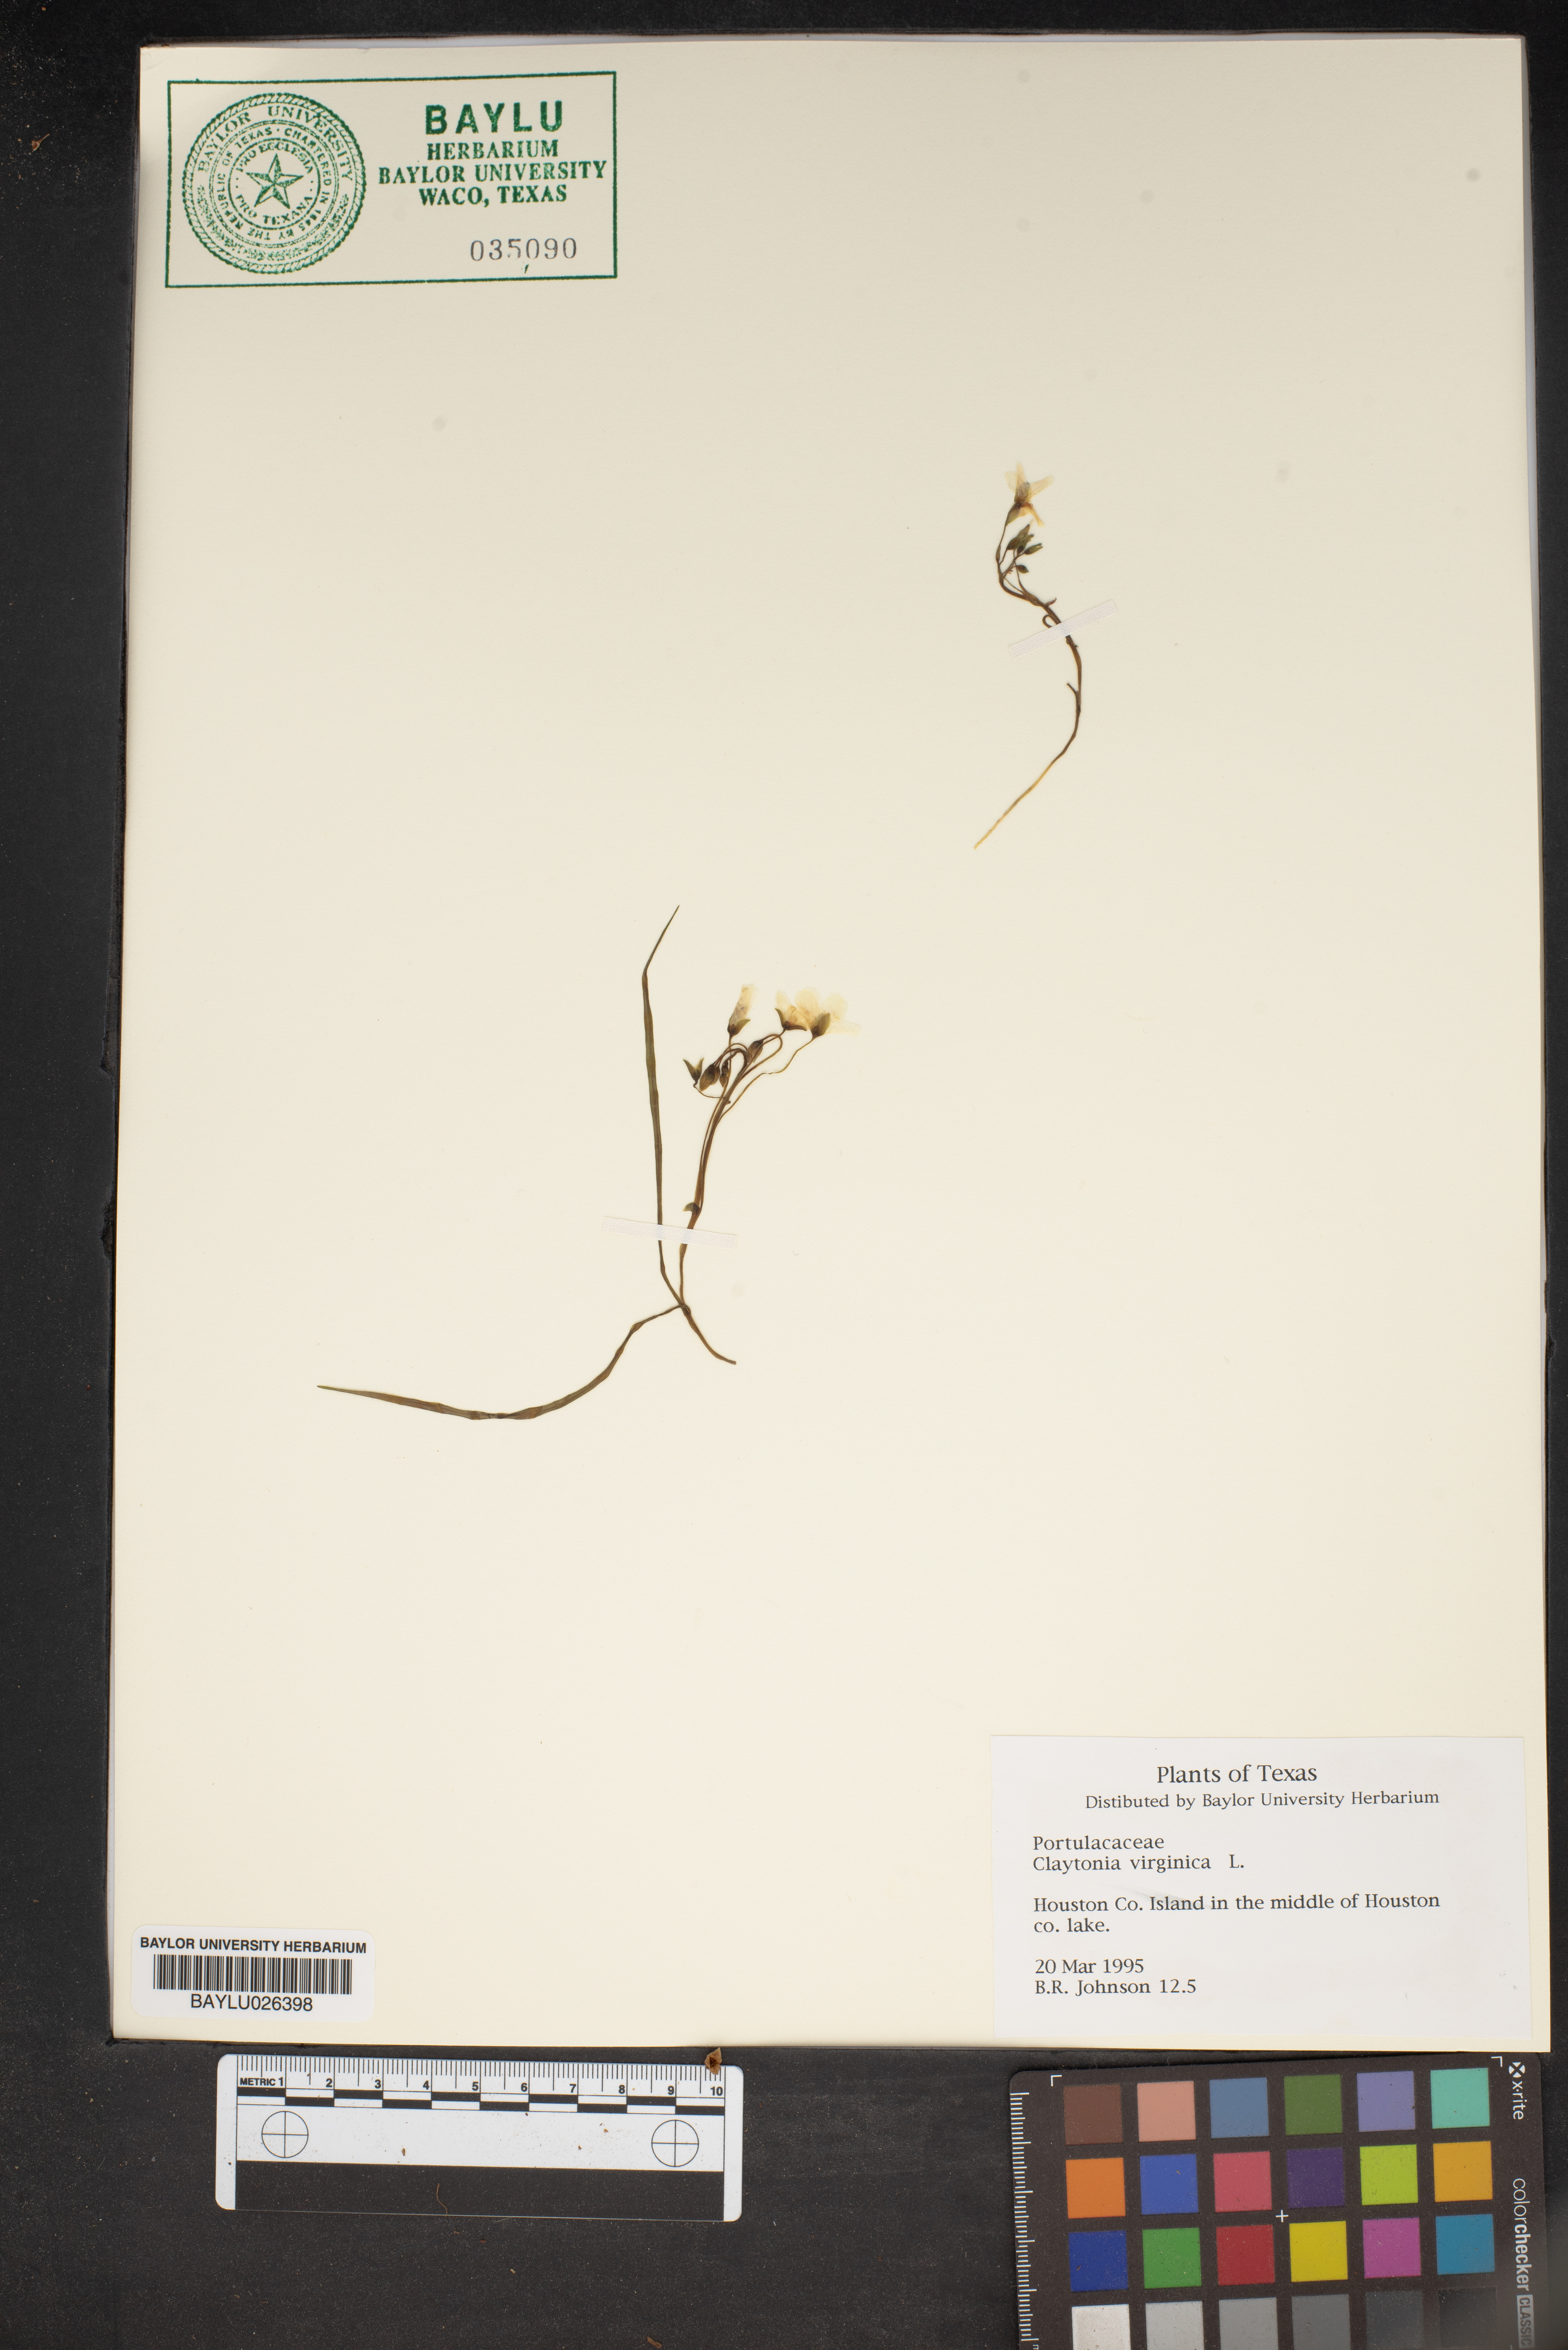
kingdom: Plantae
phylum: Tracheophyta
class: Magnoliopsida
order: Caryophyllales
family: Montiaceae
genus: Claytonia
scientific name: Claytonia virginica
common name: Virginia springbeauty
